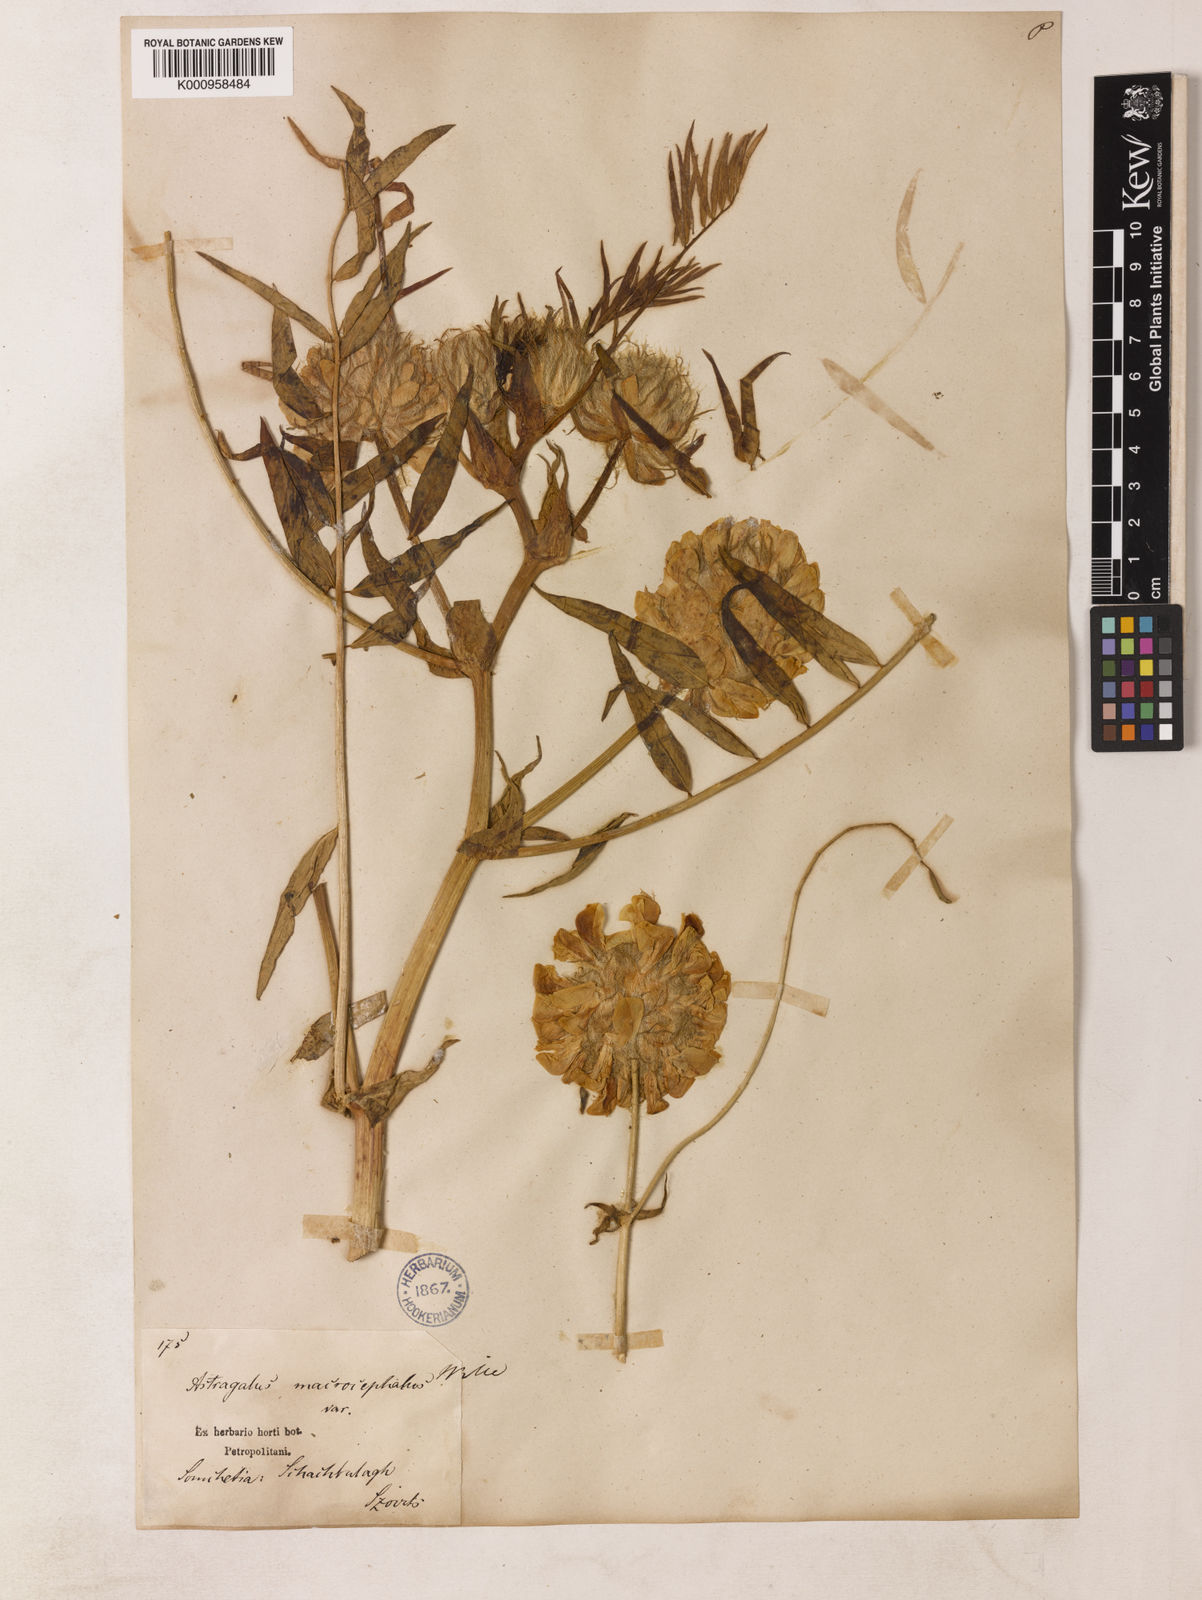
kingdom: Plantae
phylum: Tracheophyta
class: Magnoliopsida
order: Fabales
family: Fabaceae
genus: Astragalus
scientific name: Astragalus macrocephalus
